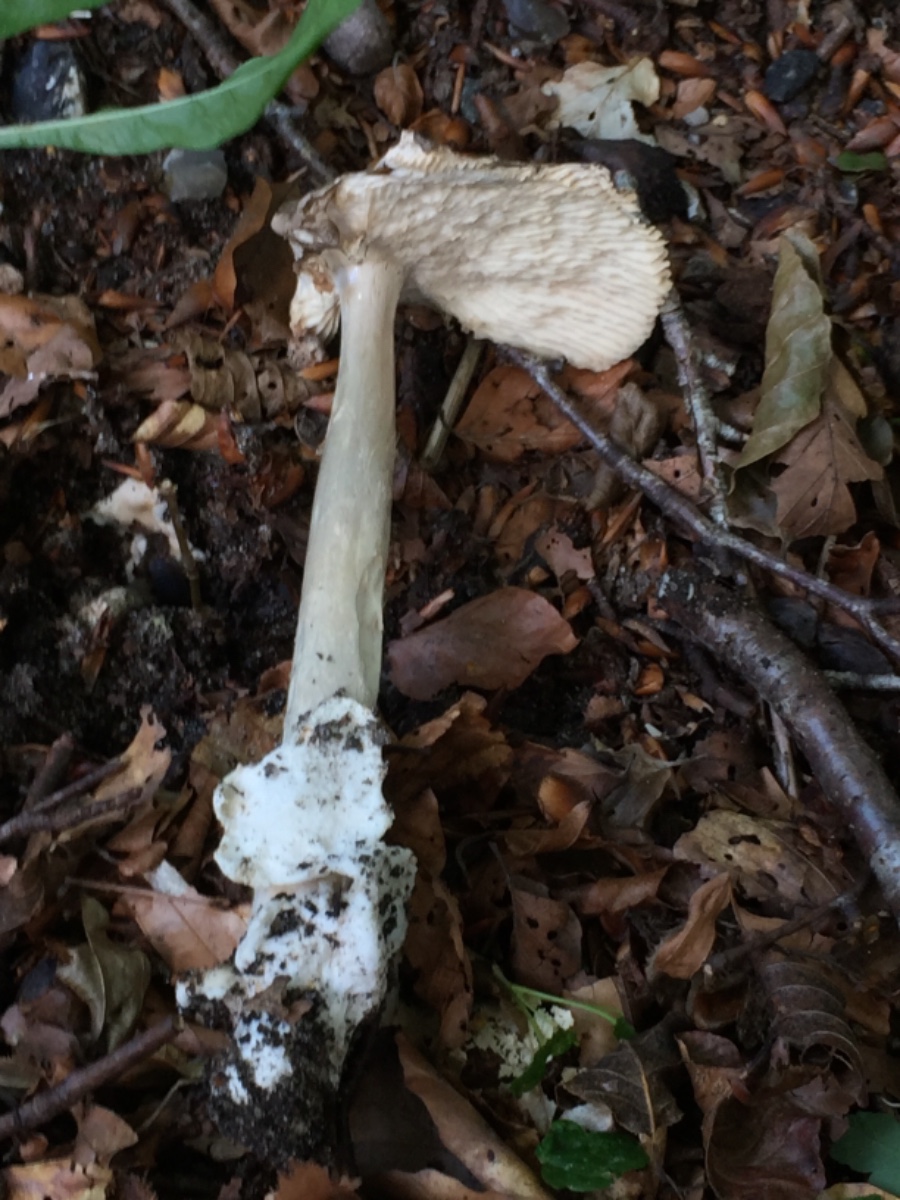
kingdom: Fungi
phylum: Basidiomycota
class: Agaricomycetes
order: Agaricales
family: Amanitaceae
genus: Amanita
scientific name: Amanita vaginata
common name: grå kam-fluesvamp
